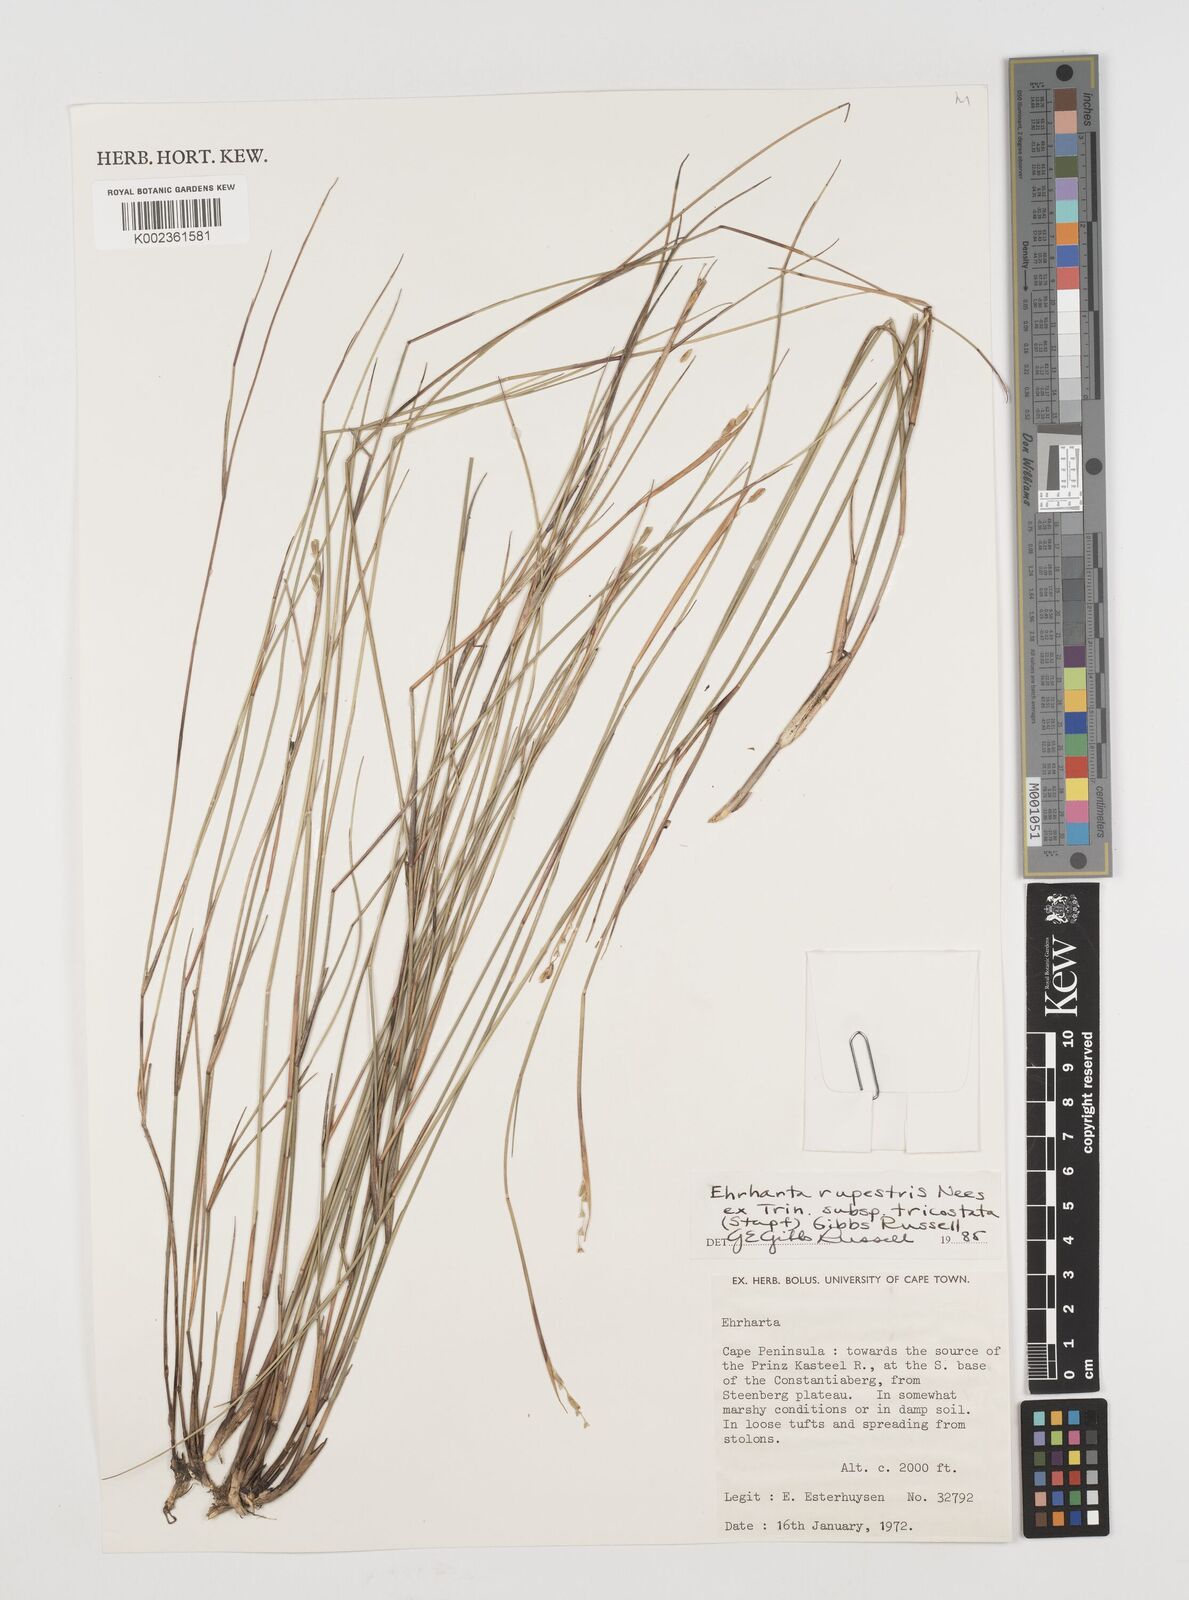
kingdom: Plantae
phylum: Tracheophyta
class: Liliopsida
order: Poales
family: Poaceae
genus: Ehrharta
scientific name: Ehrharta rupestris
